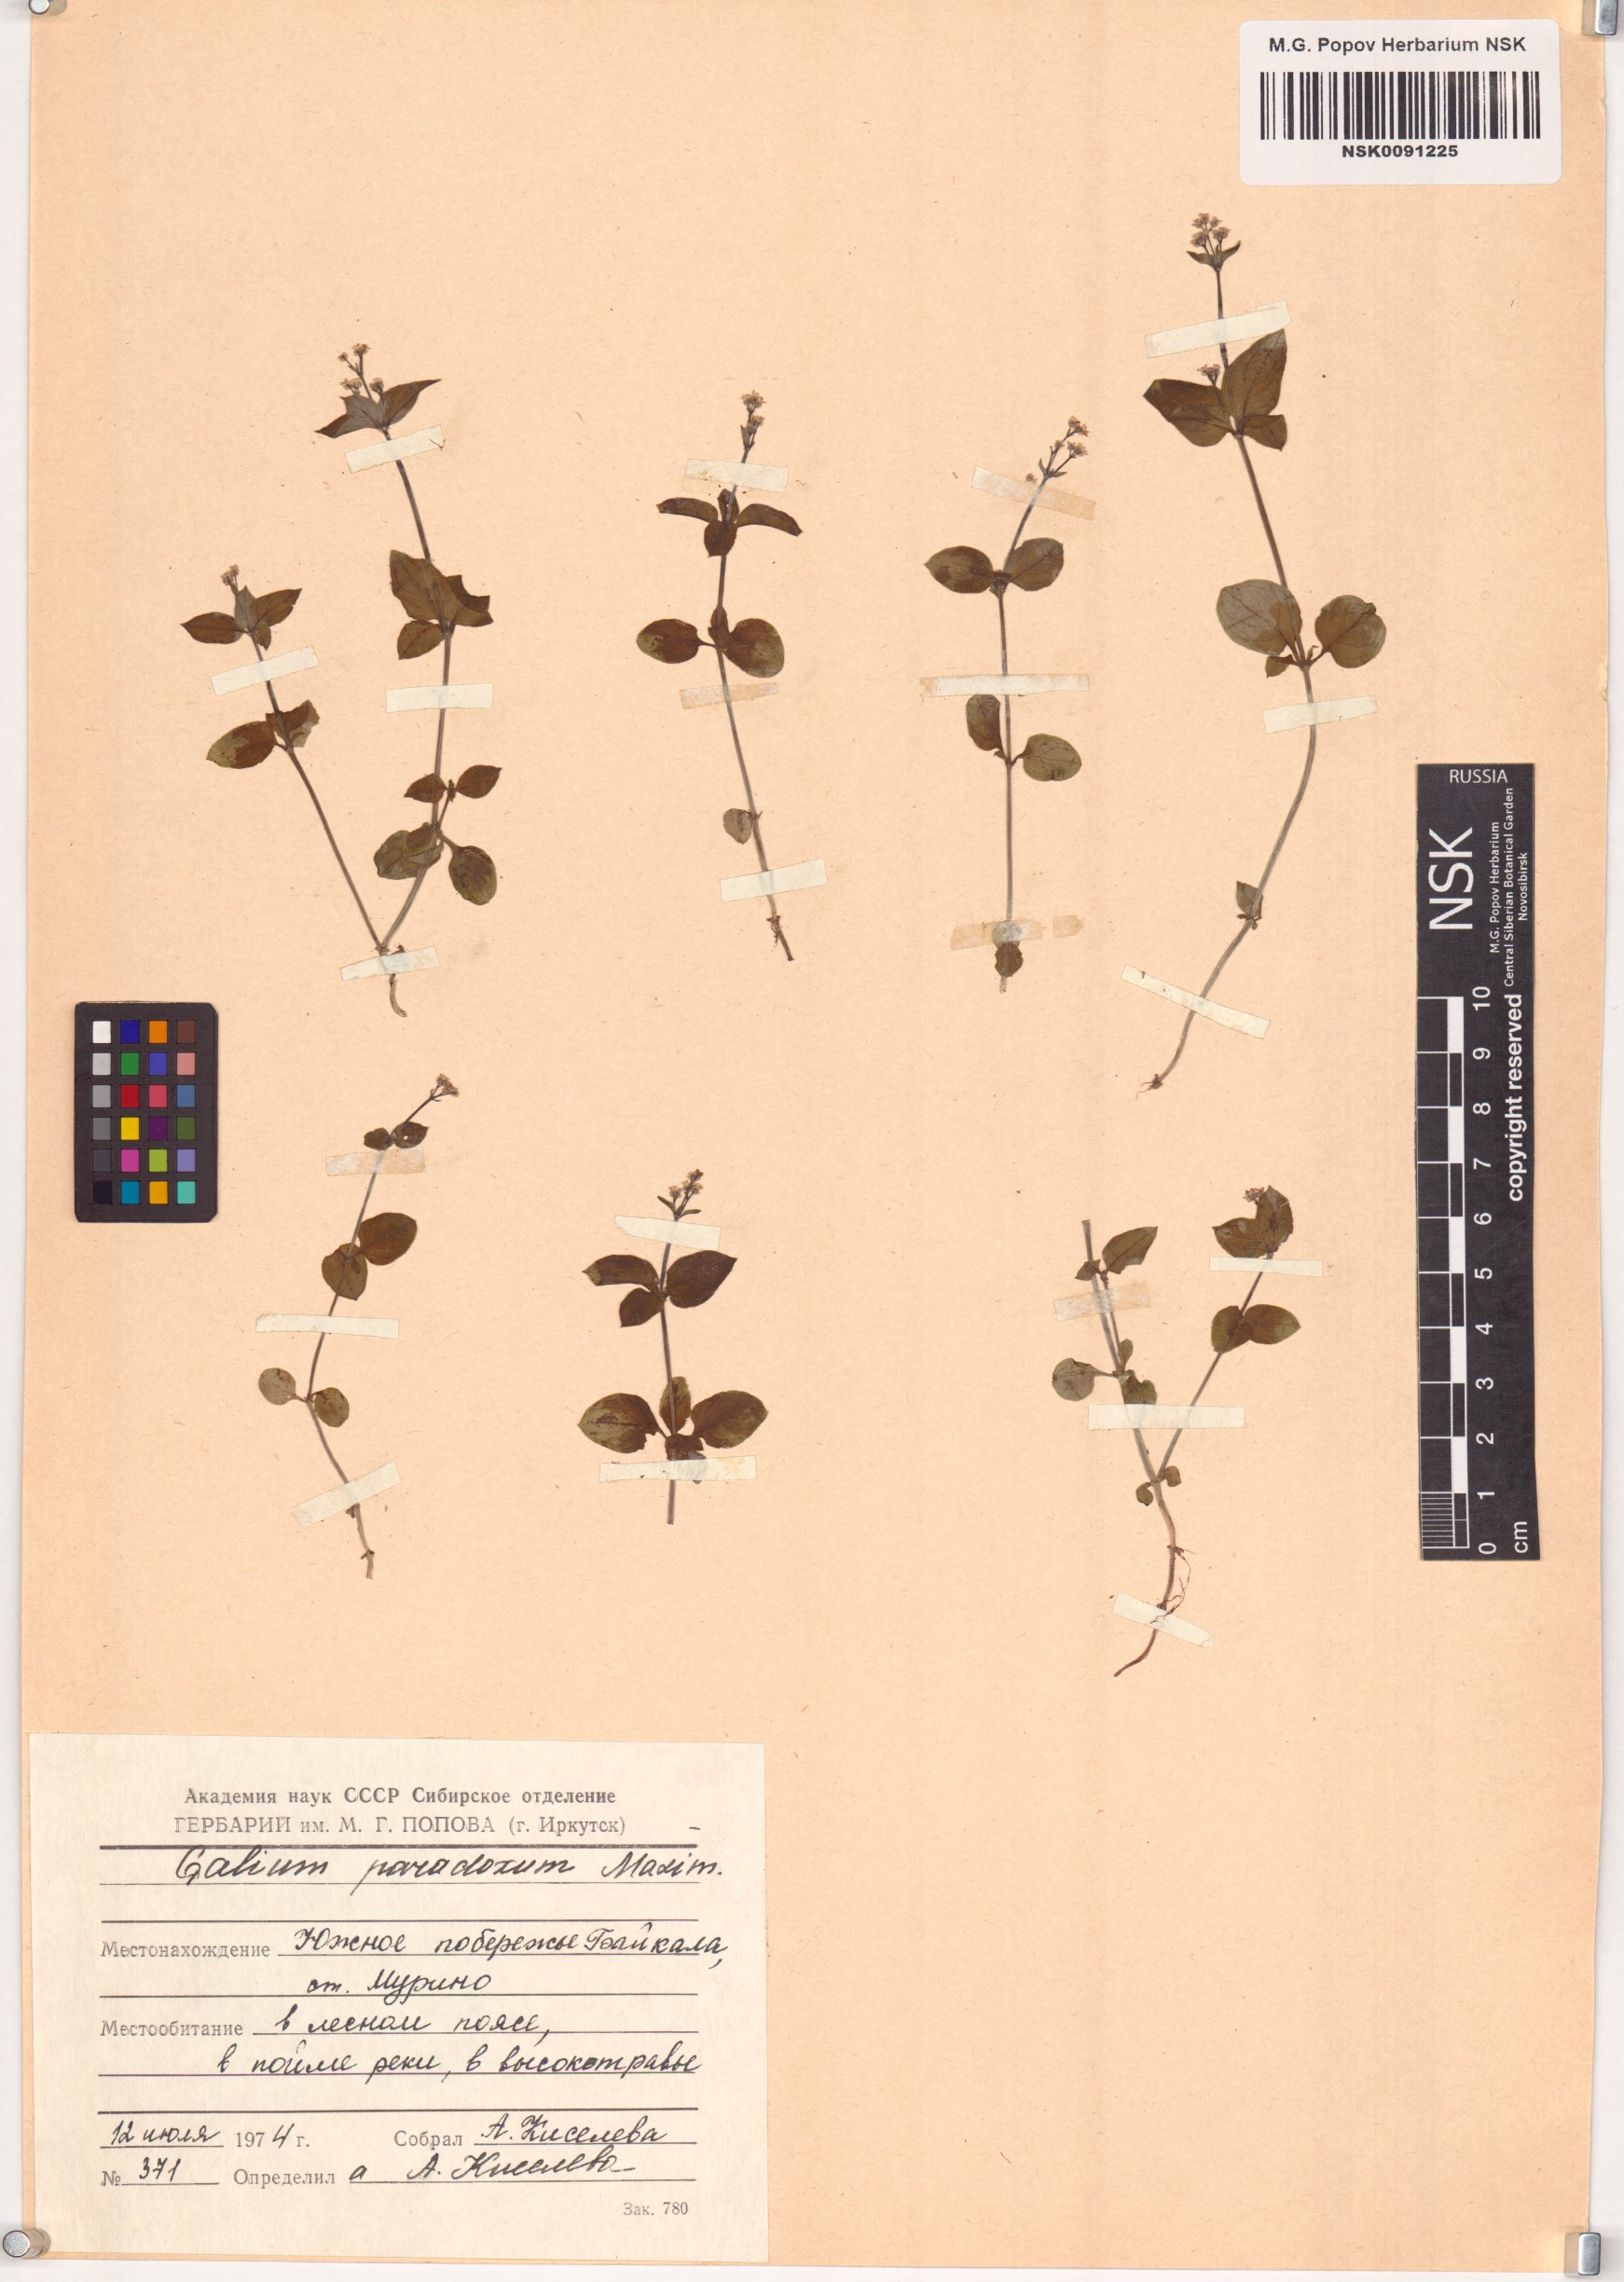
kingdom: Plantae
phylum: Tracheophyta
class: Magnoliopsida
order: Gentianales
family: Rubiaceae
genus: Pseudogalium
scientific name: Pseudogalium paradoxum
